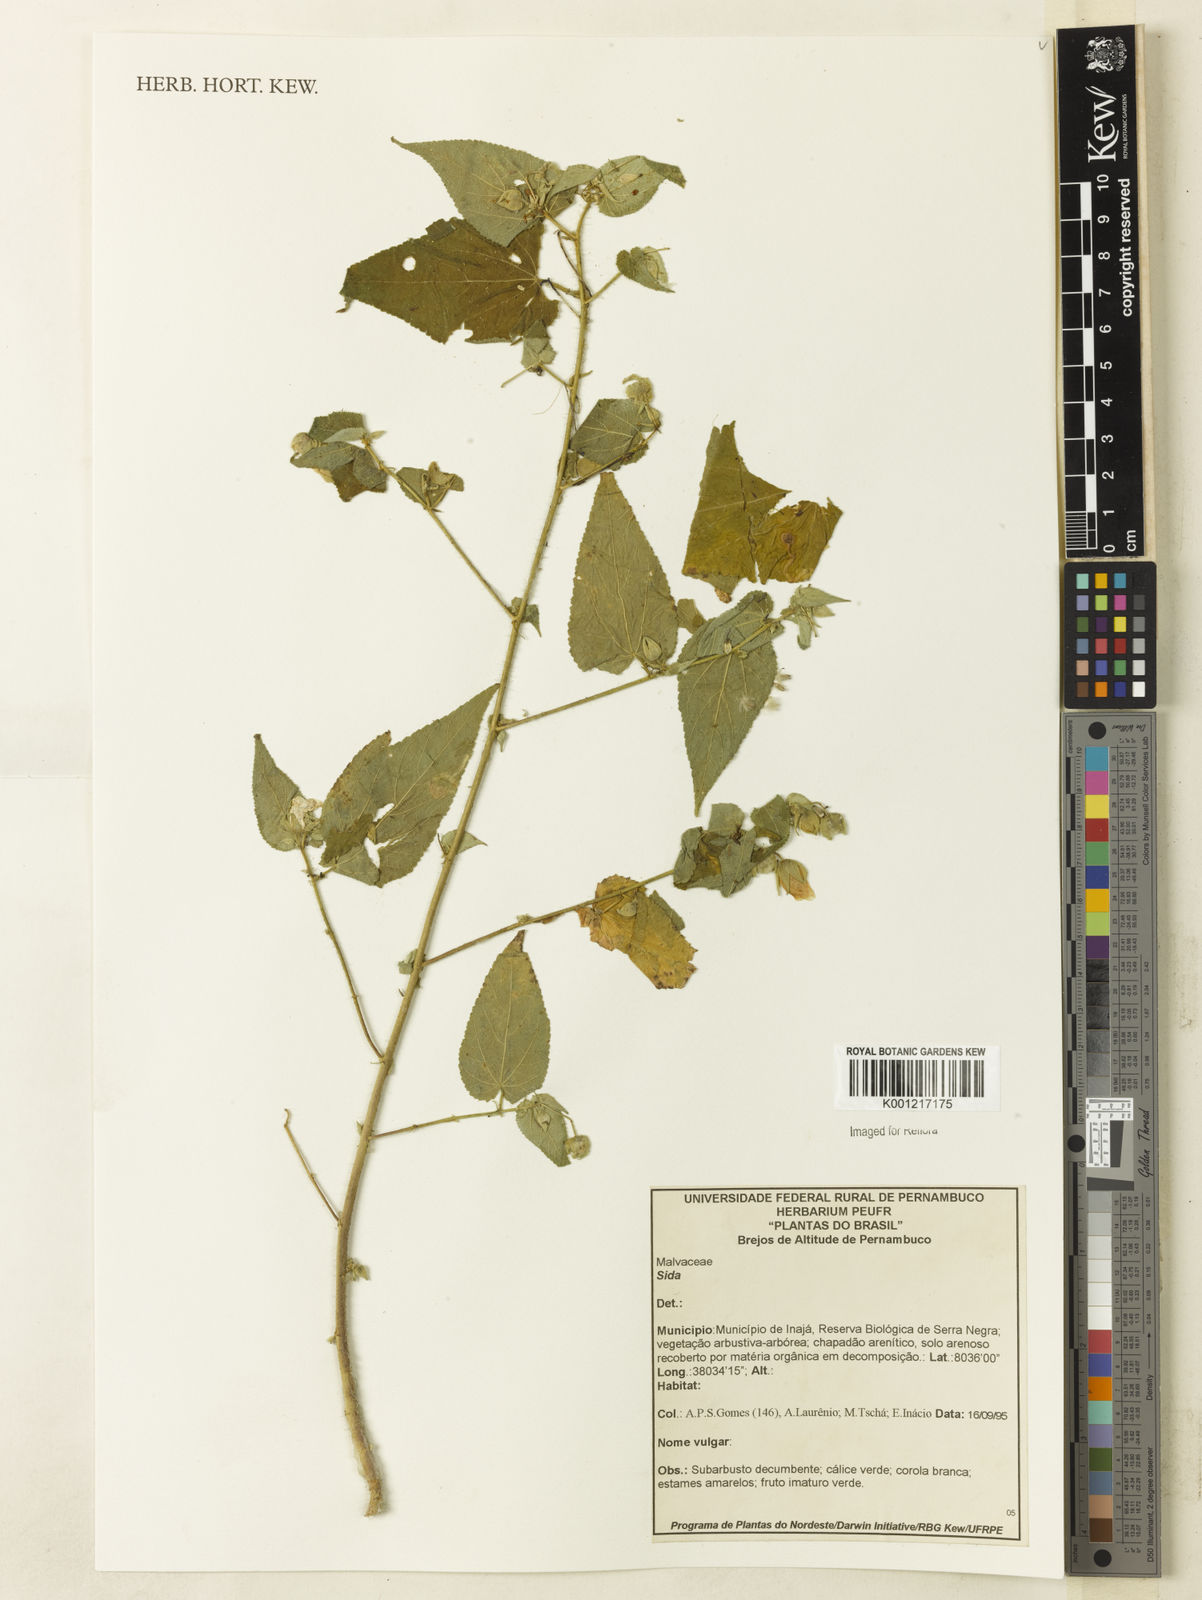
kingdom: Plantae
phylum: Tracheophyta
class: Magnoliopsida
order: Malvales
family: Malvaceae
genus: Sida
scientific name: Sida
